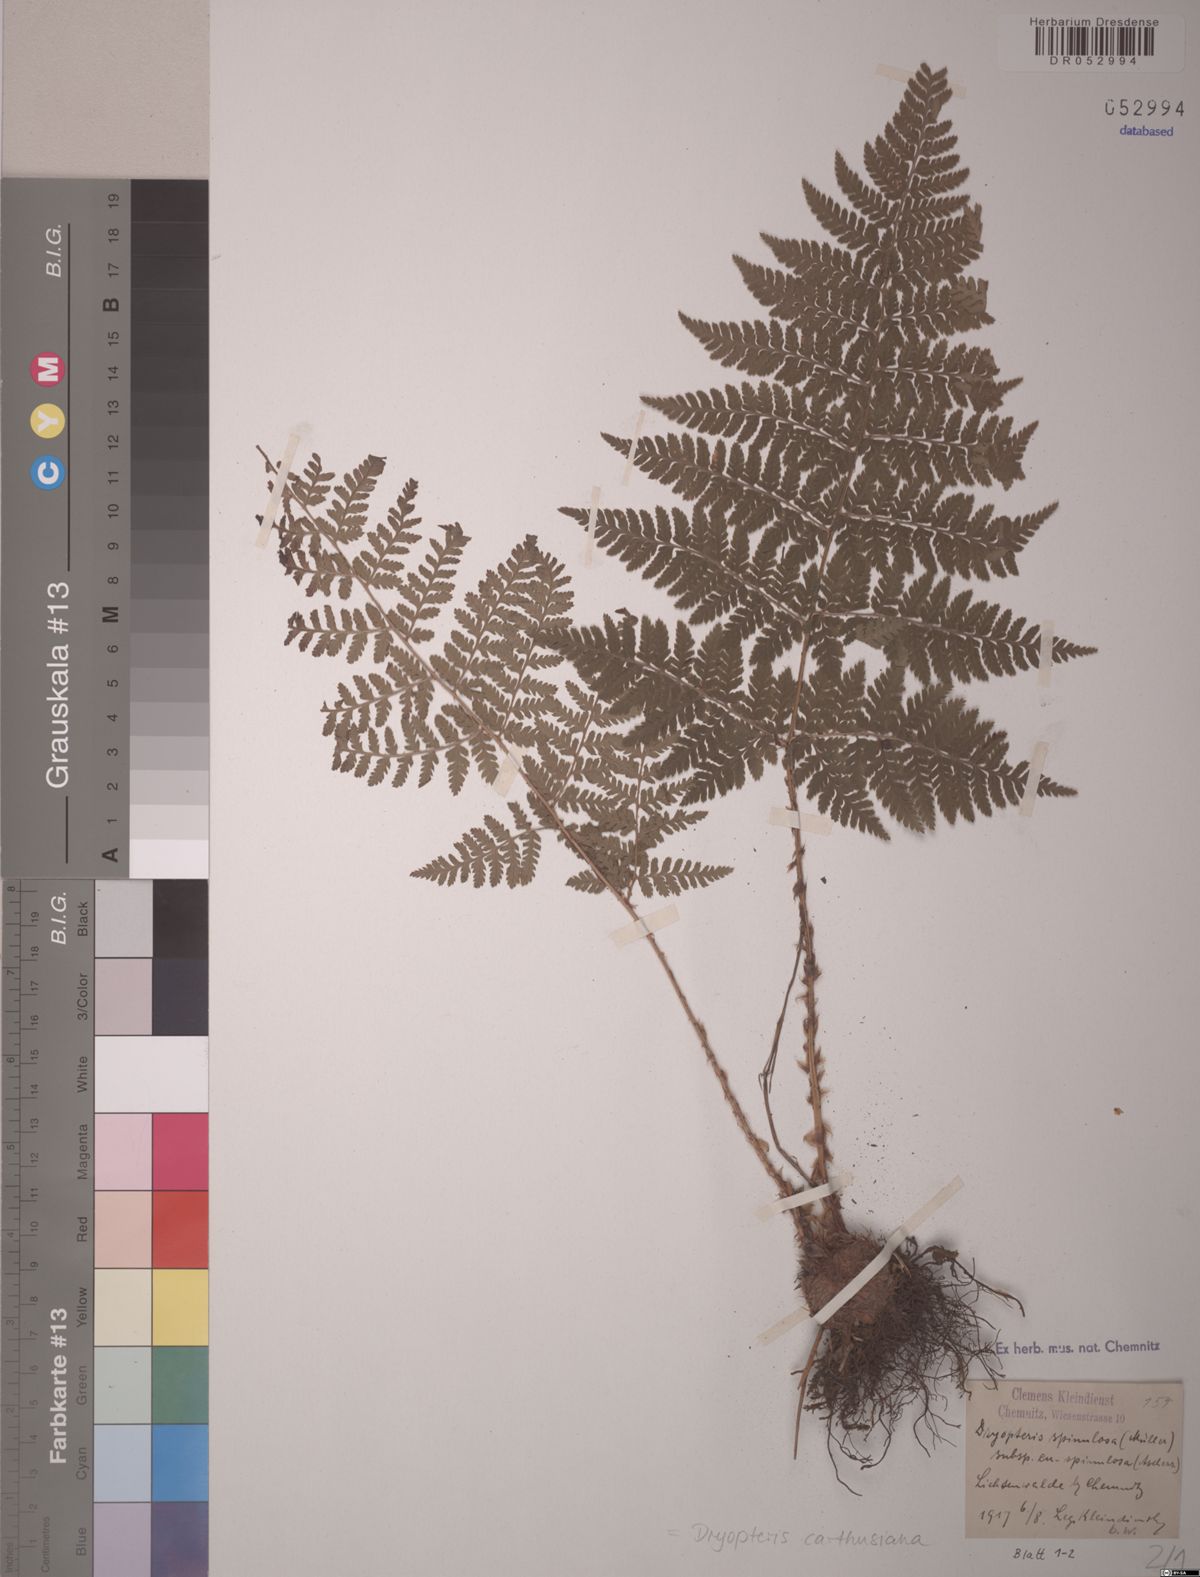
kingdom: Plantae
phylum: Tracheophyta
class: Polypodiopsida
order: Polypodiales
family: Dryopteridaceae
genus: Dryopteris
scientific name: Dryopteris carthusiana
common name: Narrow buckler-fern
